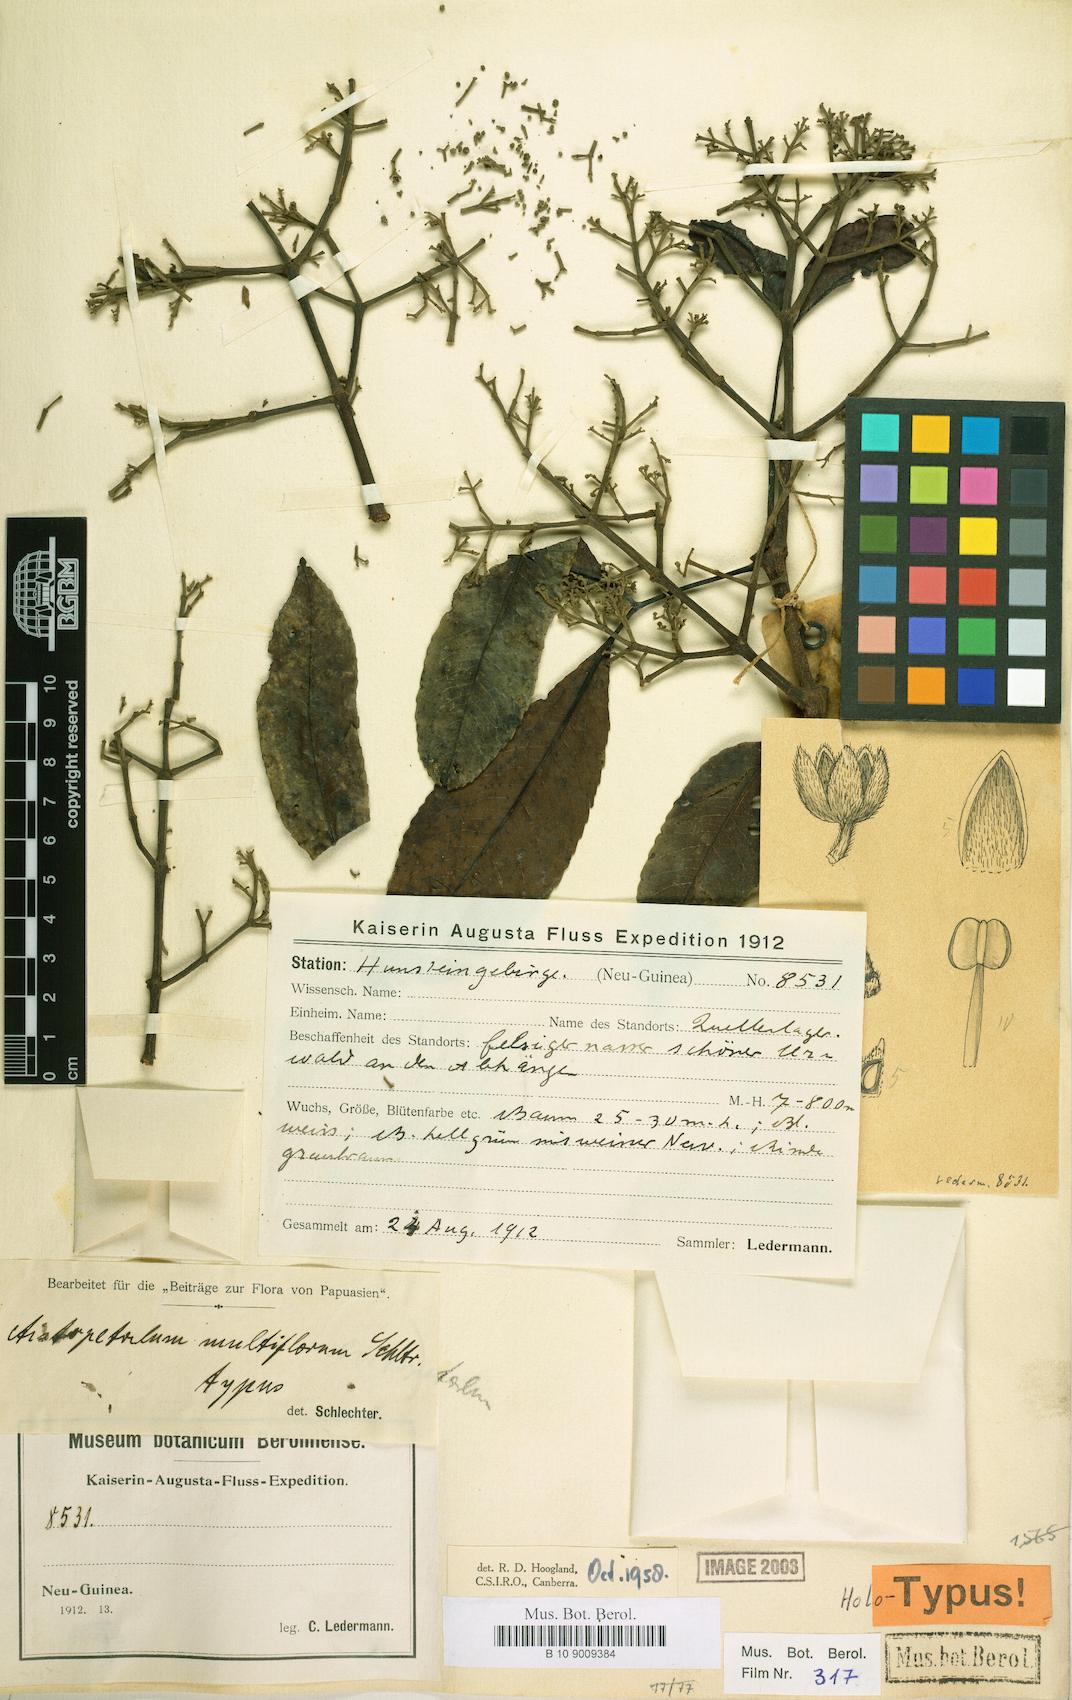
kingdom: Plantae
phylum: Tracheophyta
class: Magnoliopsida
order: Oxalidales
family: Cunoniaceae
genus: Aistopetalum
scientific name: Aistopetalum multiflorum
